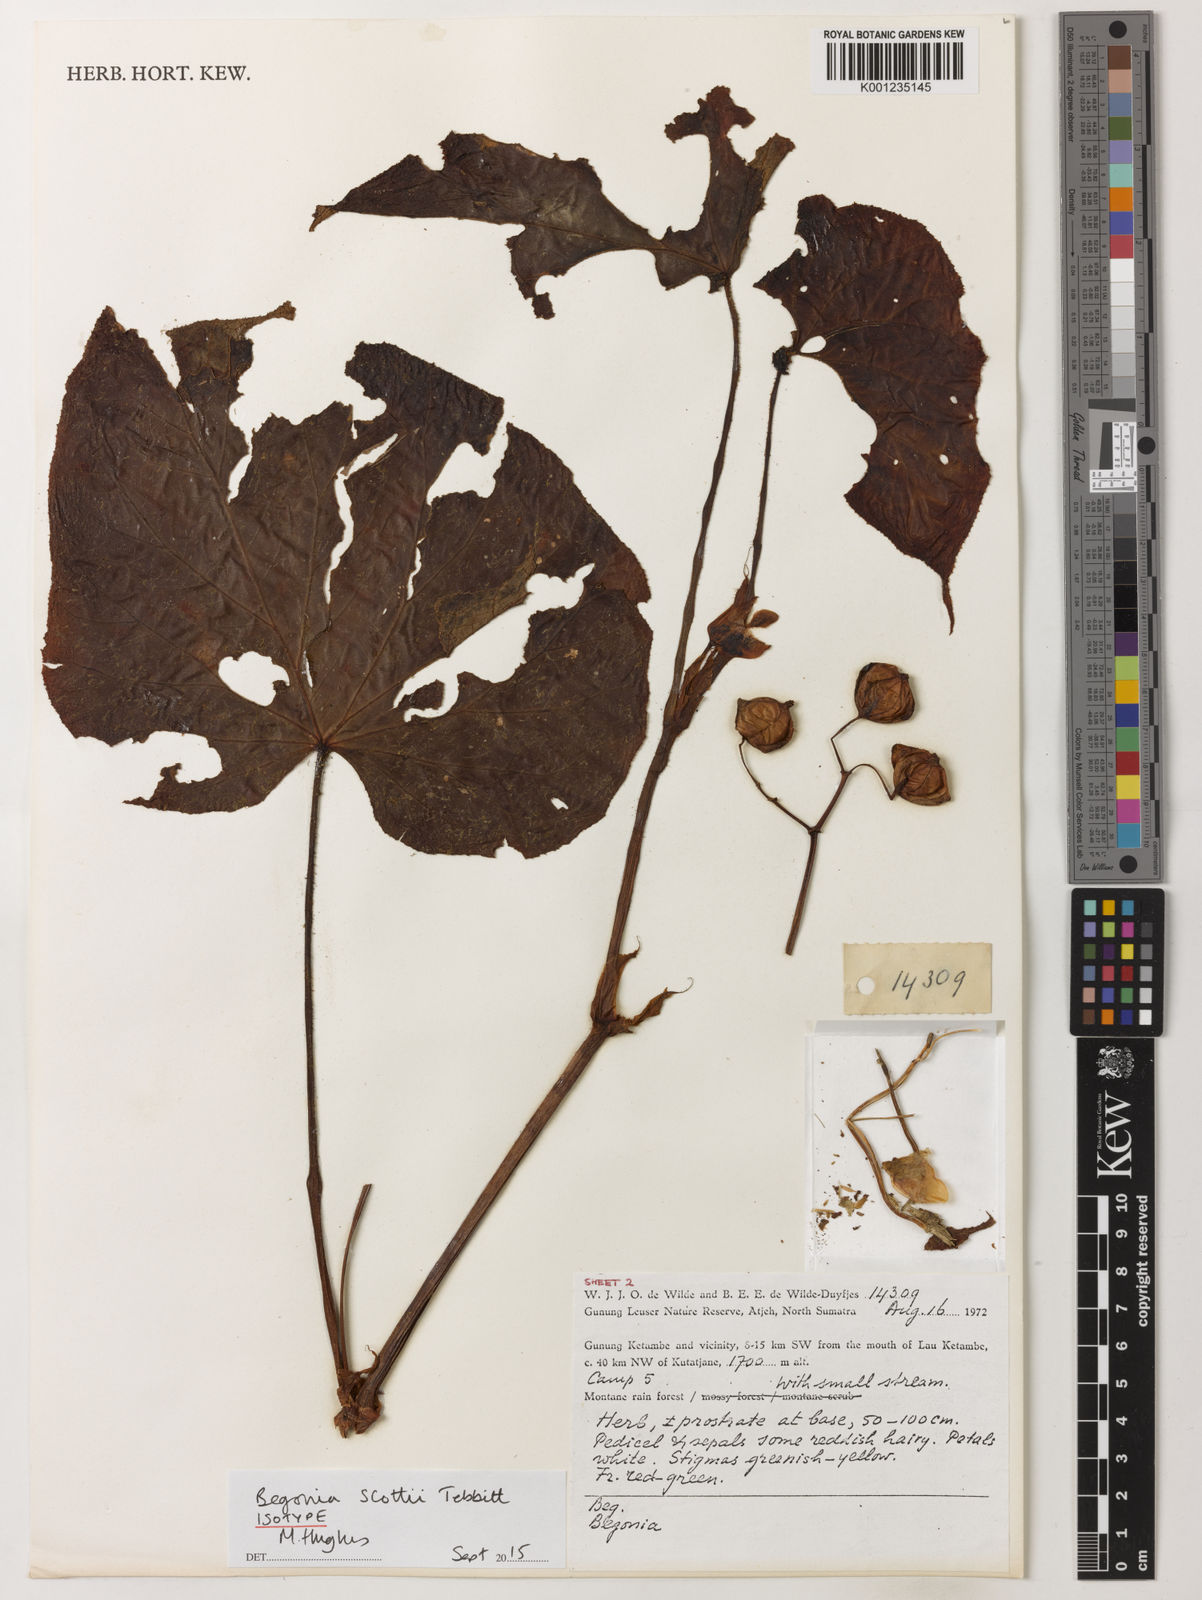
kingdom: Plantae
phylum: Tracheophyta
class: Magnoliopsida
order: Cucurbitales
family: Begoniaceae
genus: Begonia
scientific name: Begonia scottii
